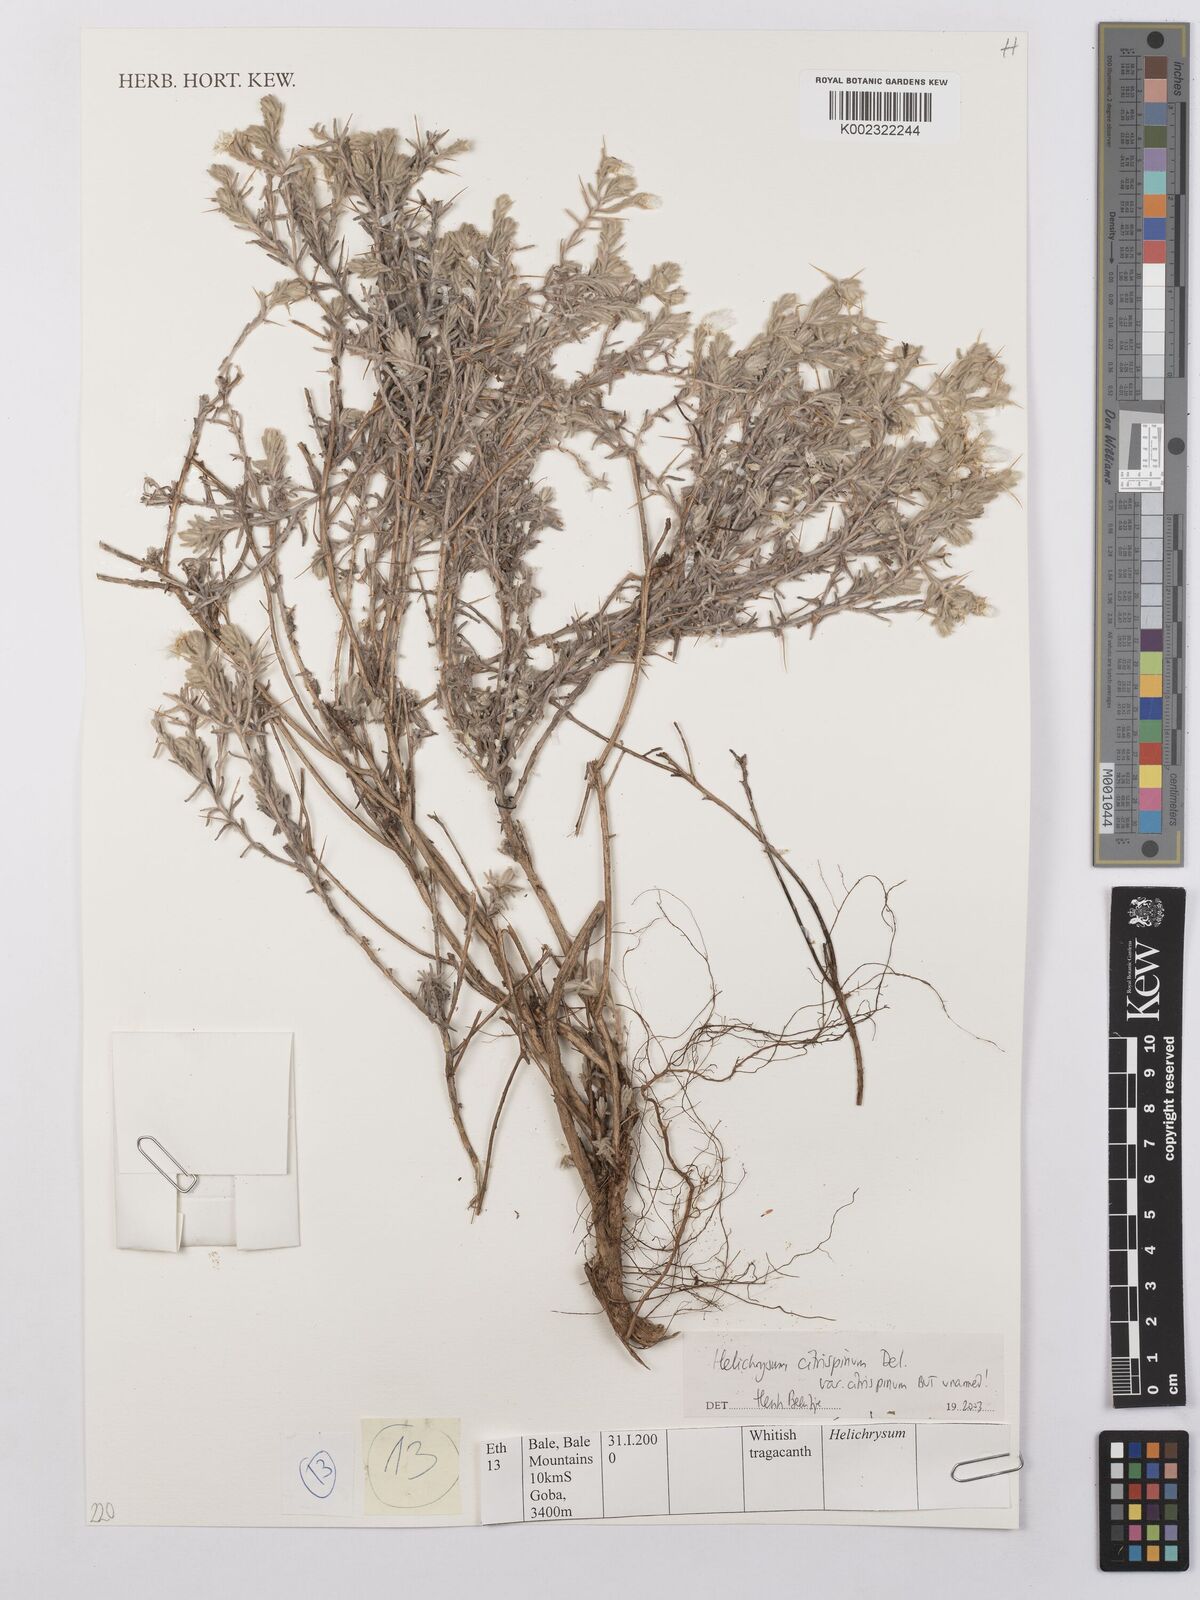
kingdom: Plantae
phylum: Tracheophyta
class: Magnoliopsida
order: Asterales
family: Asteraceae
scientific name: Asteraceae
